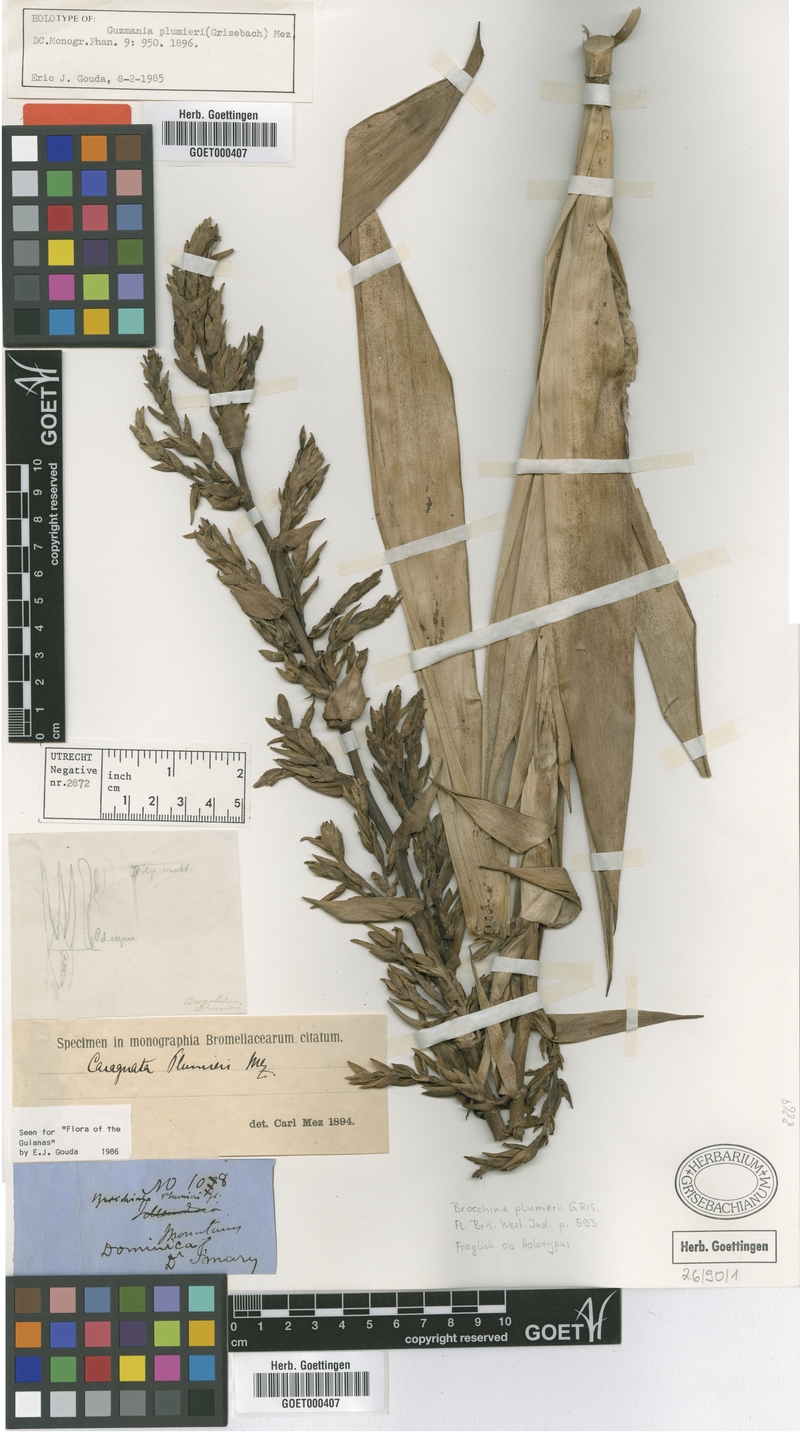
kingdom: Plantae
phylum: Tracheophyta
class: Liliopsida
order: Poales
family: Bromeliaceae
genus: Guzmania
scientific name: Guzmania plumieri
